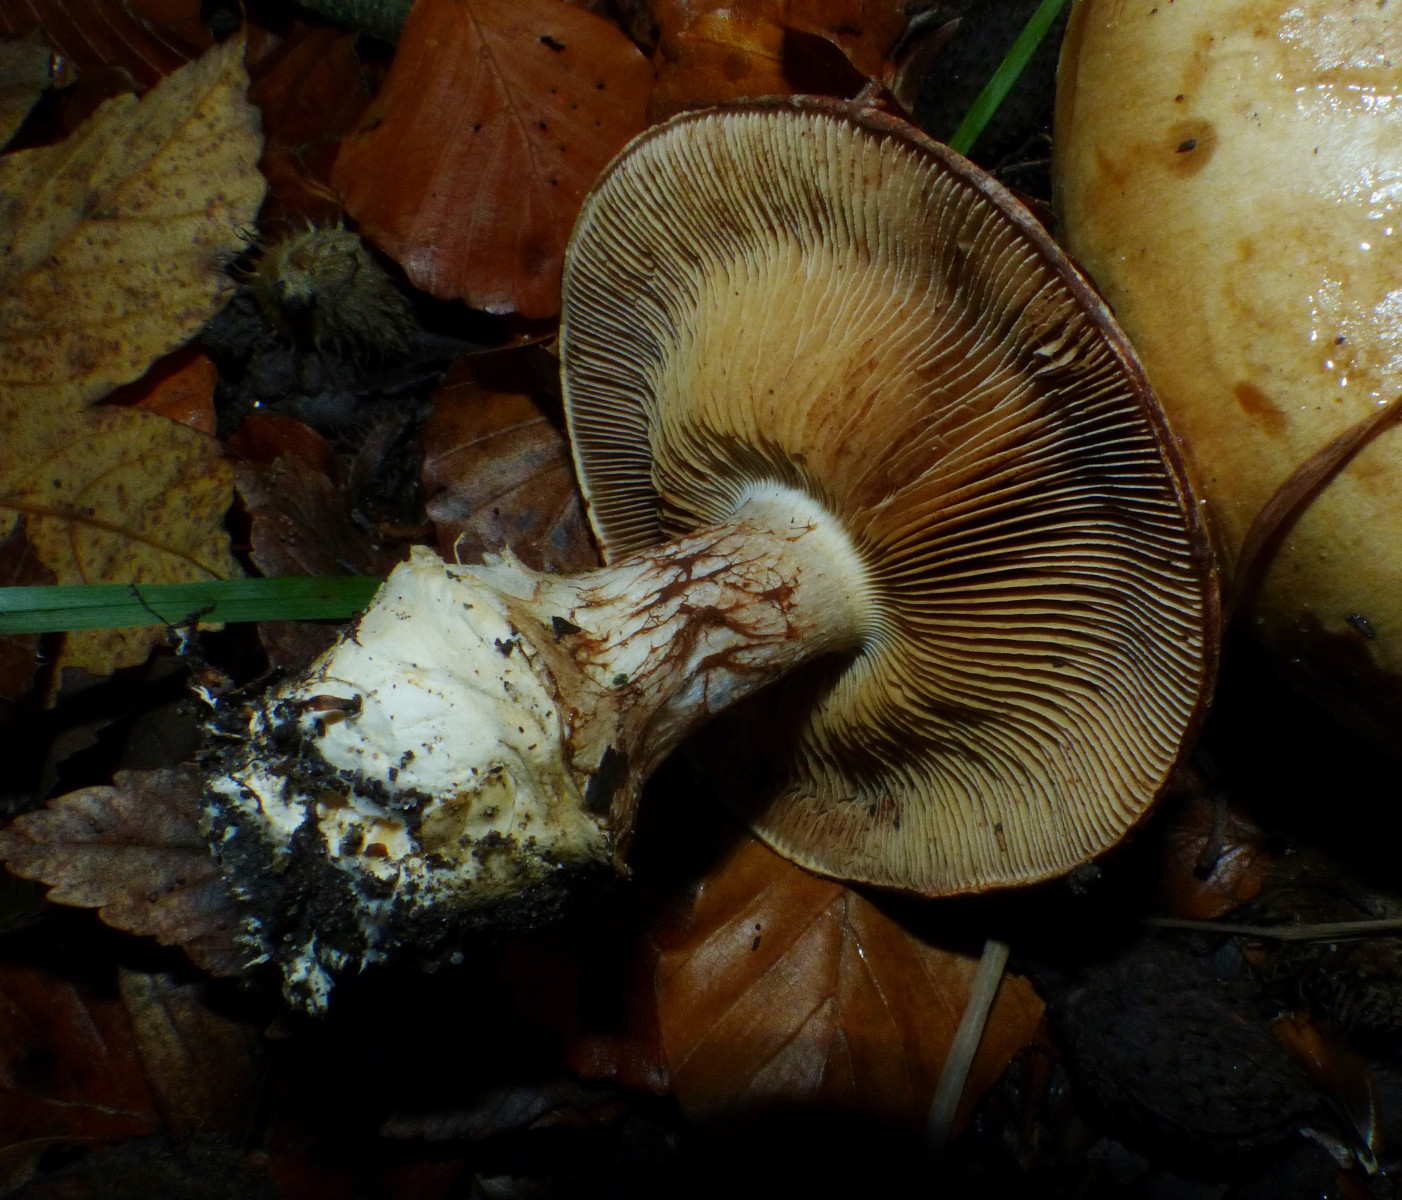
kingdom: Fungi
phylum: Basidiomycota
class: Agaricomycetes
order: Agaricales
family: Cortinariaceae
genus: Cortinarius
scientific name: Cortinarius anserinus
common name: bøge-slørhat
